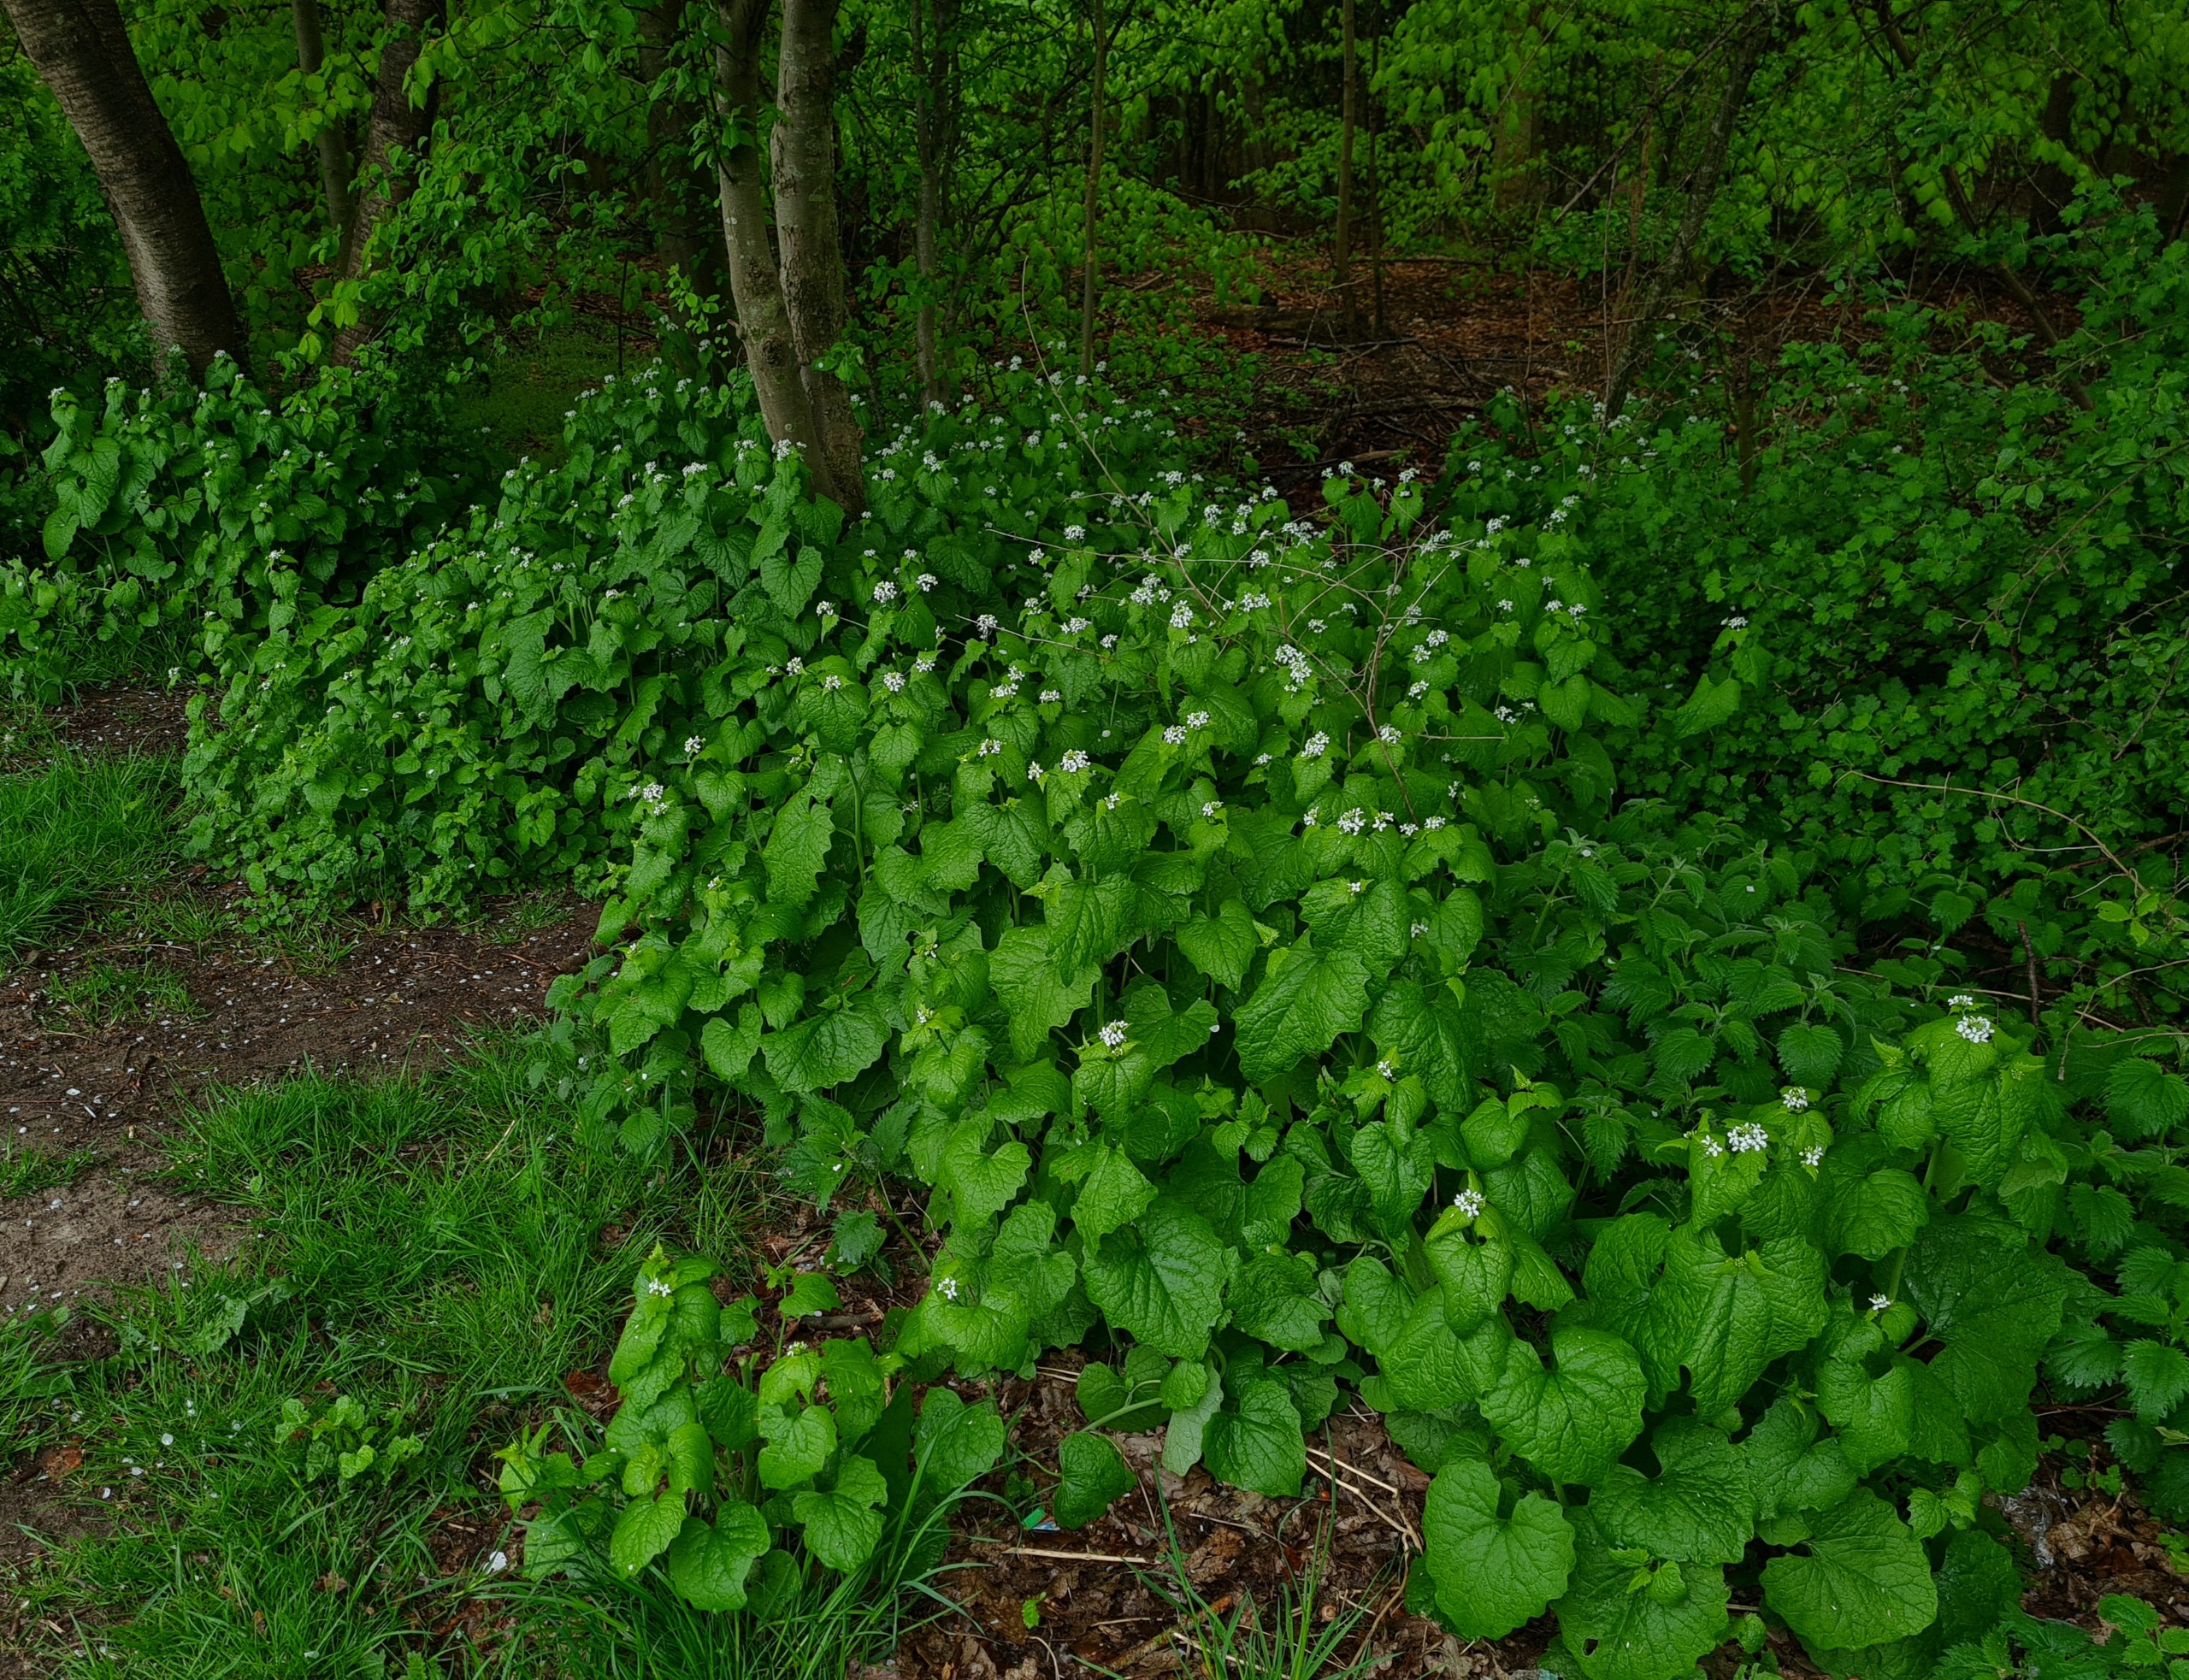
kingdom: Plantae
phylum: Tracheophyta
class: Magnoliopsida
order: Brassicales
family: Brassicaceae
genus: Alliaria
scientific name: Alliaria petiolata
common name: Løgkarse
